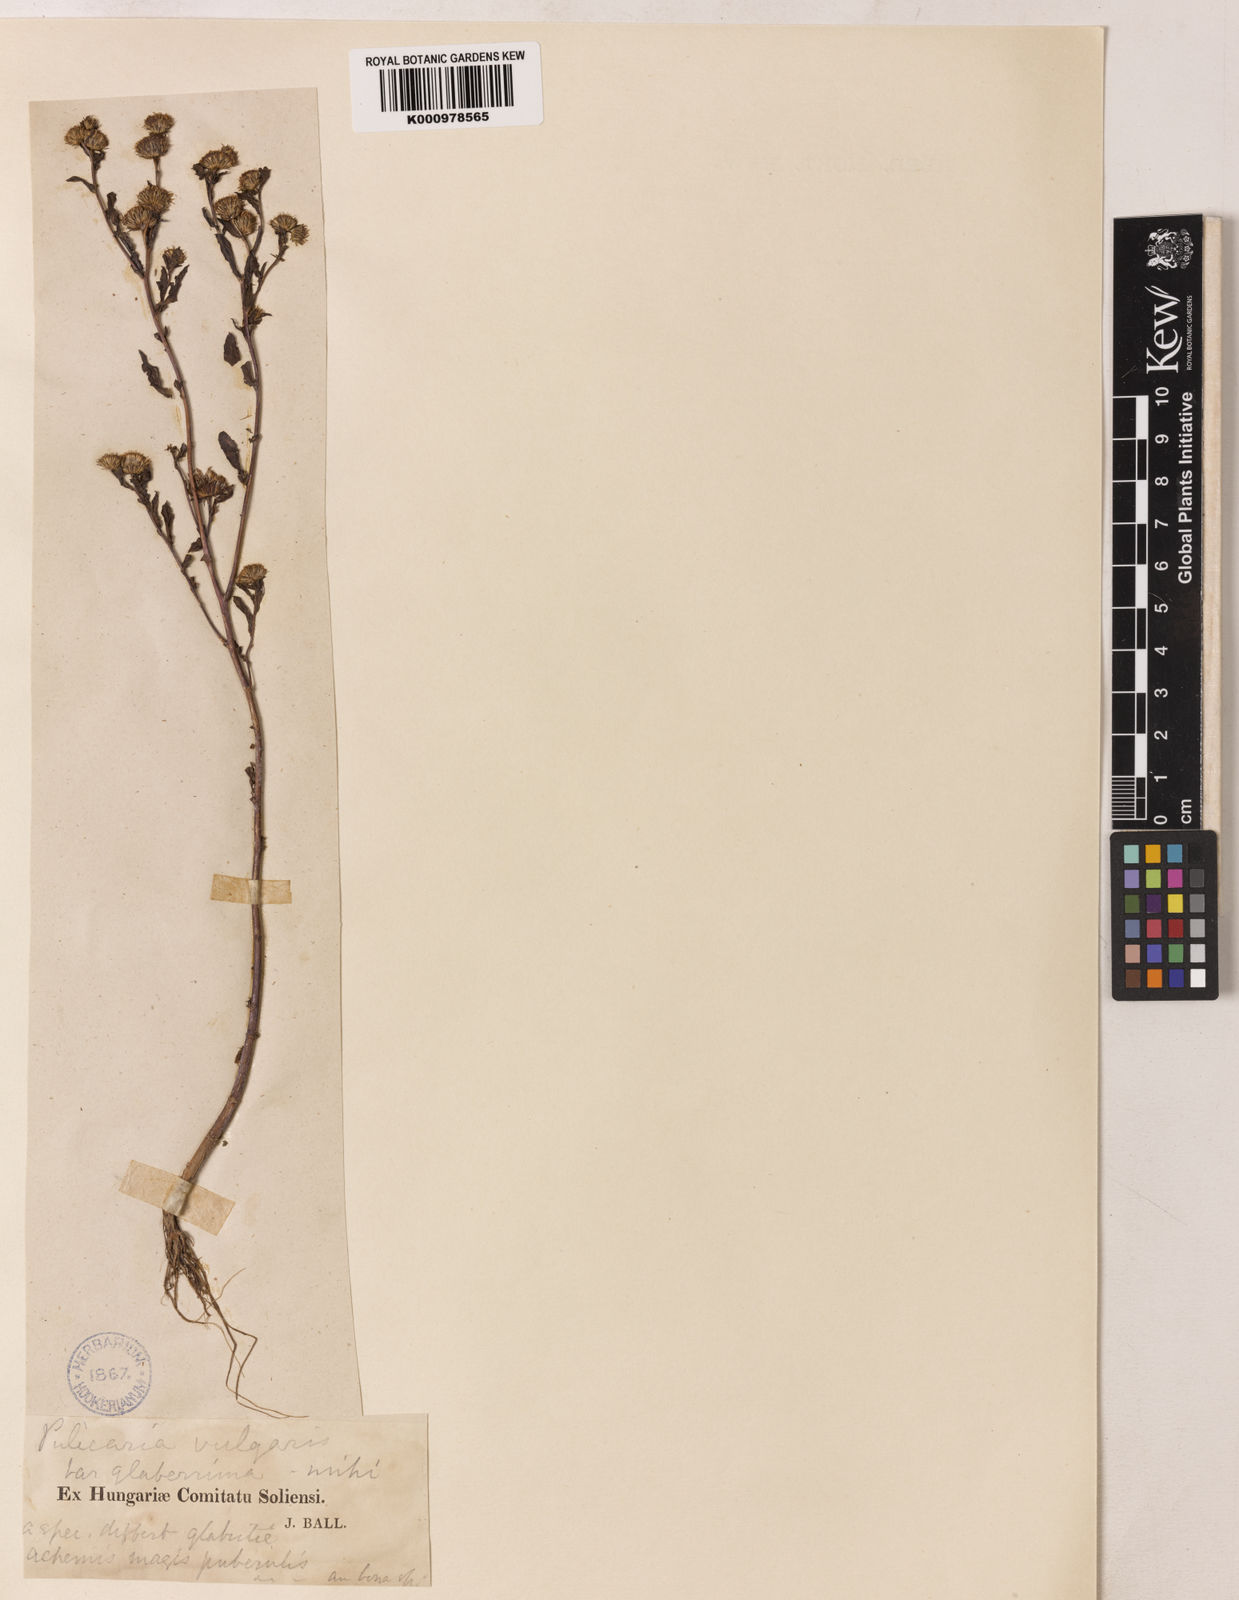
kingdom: Plantae
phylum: Tracheophyta
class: Magnoliopsida
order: Asterales
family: Asteraceae
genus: Pulicaria
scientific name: Pulicaria vulgaris
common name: Small fleabane
